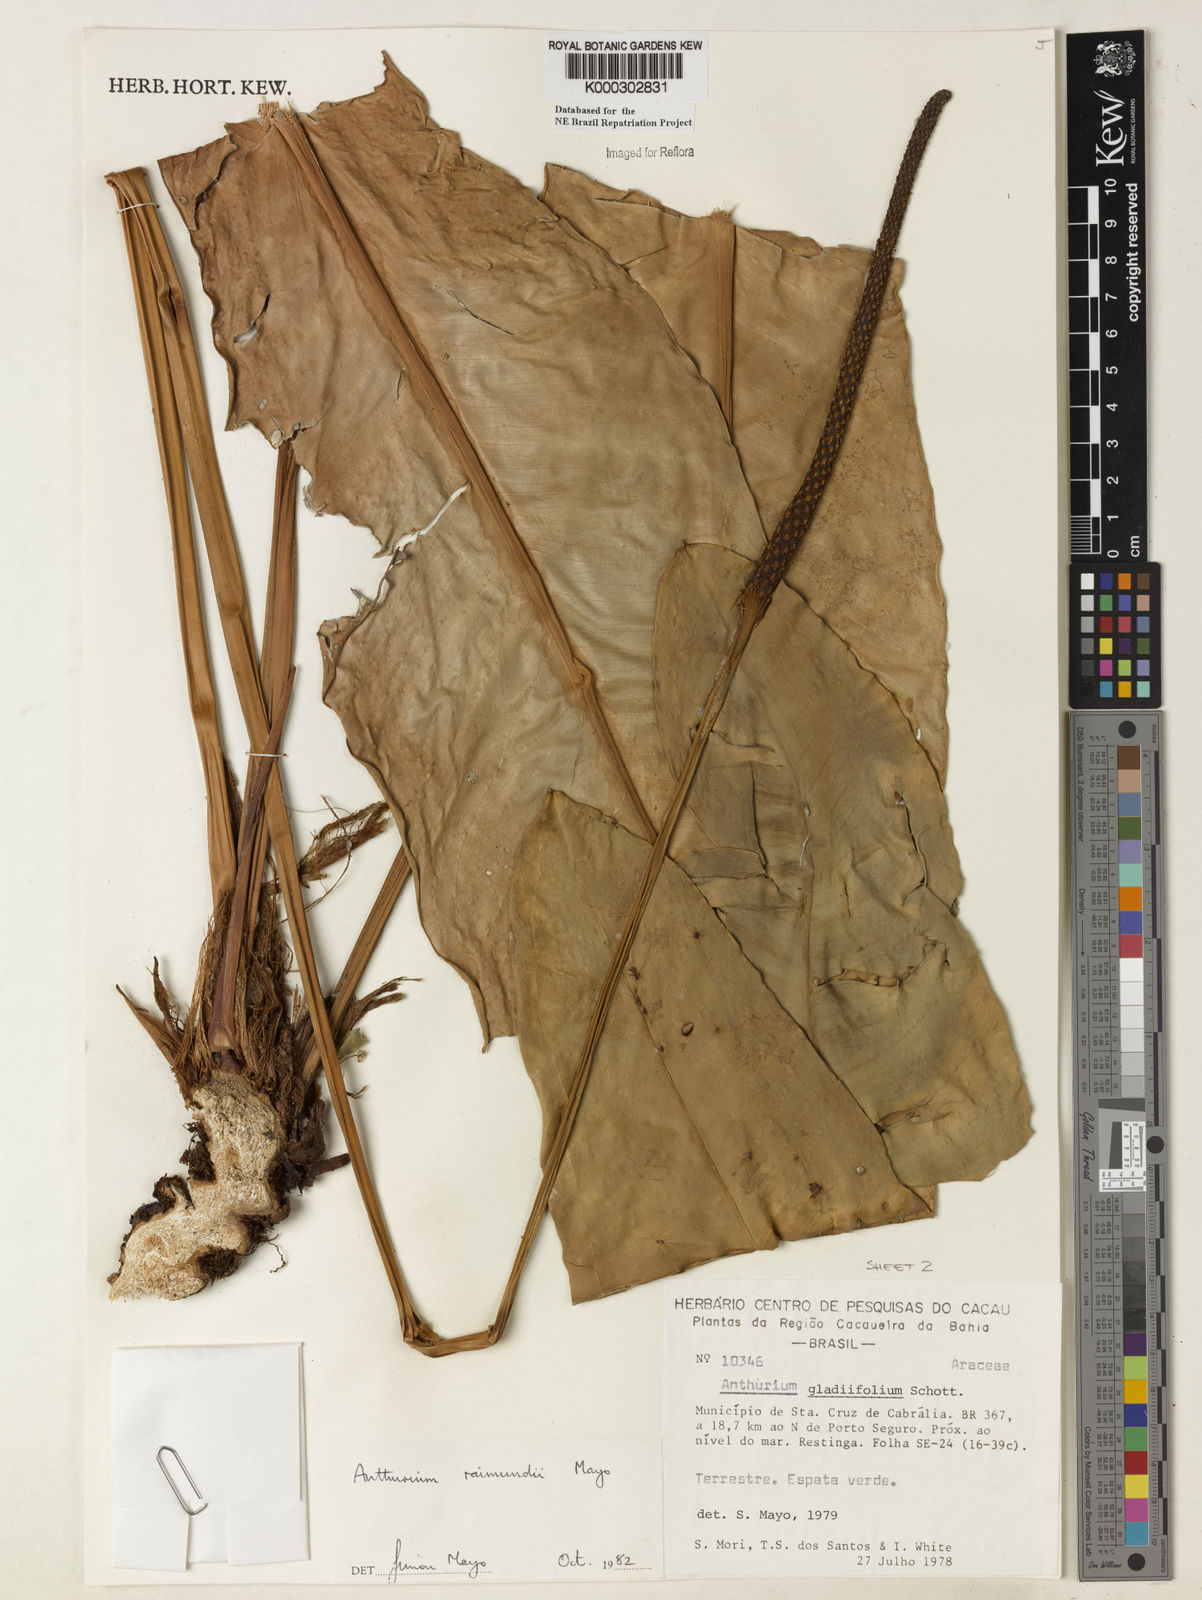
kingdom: Plantae
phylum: Tracheophyta
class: Liliopsida
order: Alismatales
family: Araceae
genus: Anthurium
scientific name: Anthurium raimundii
